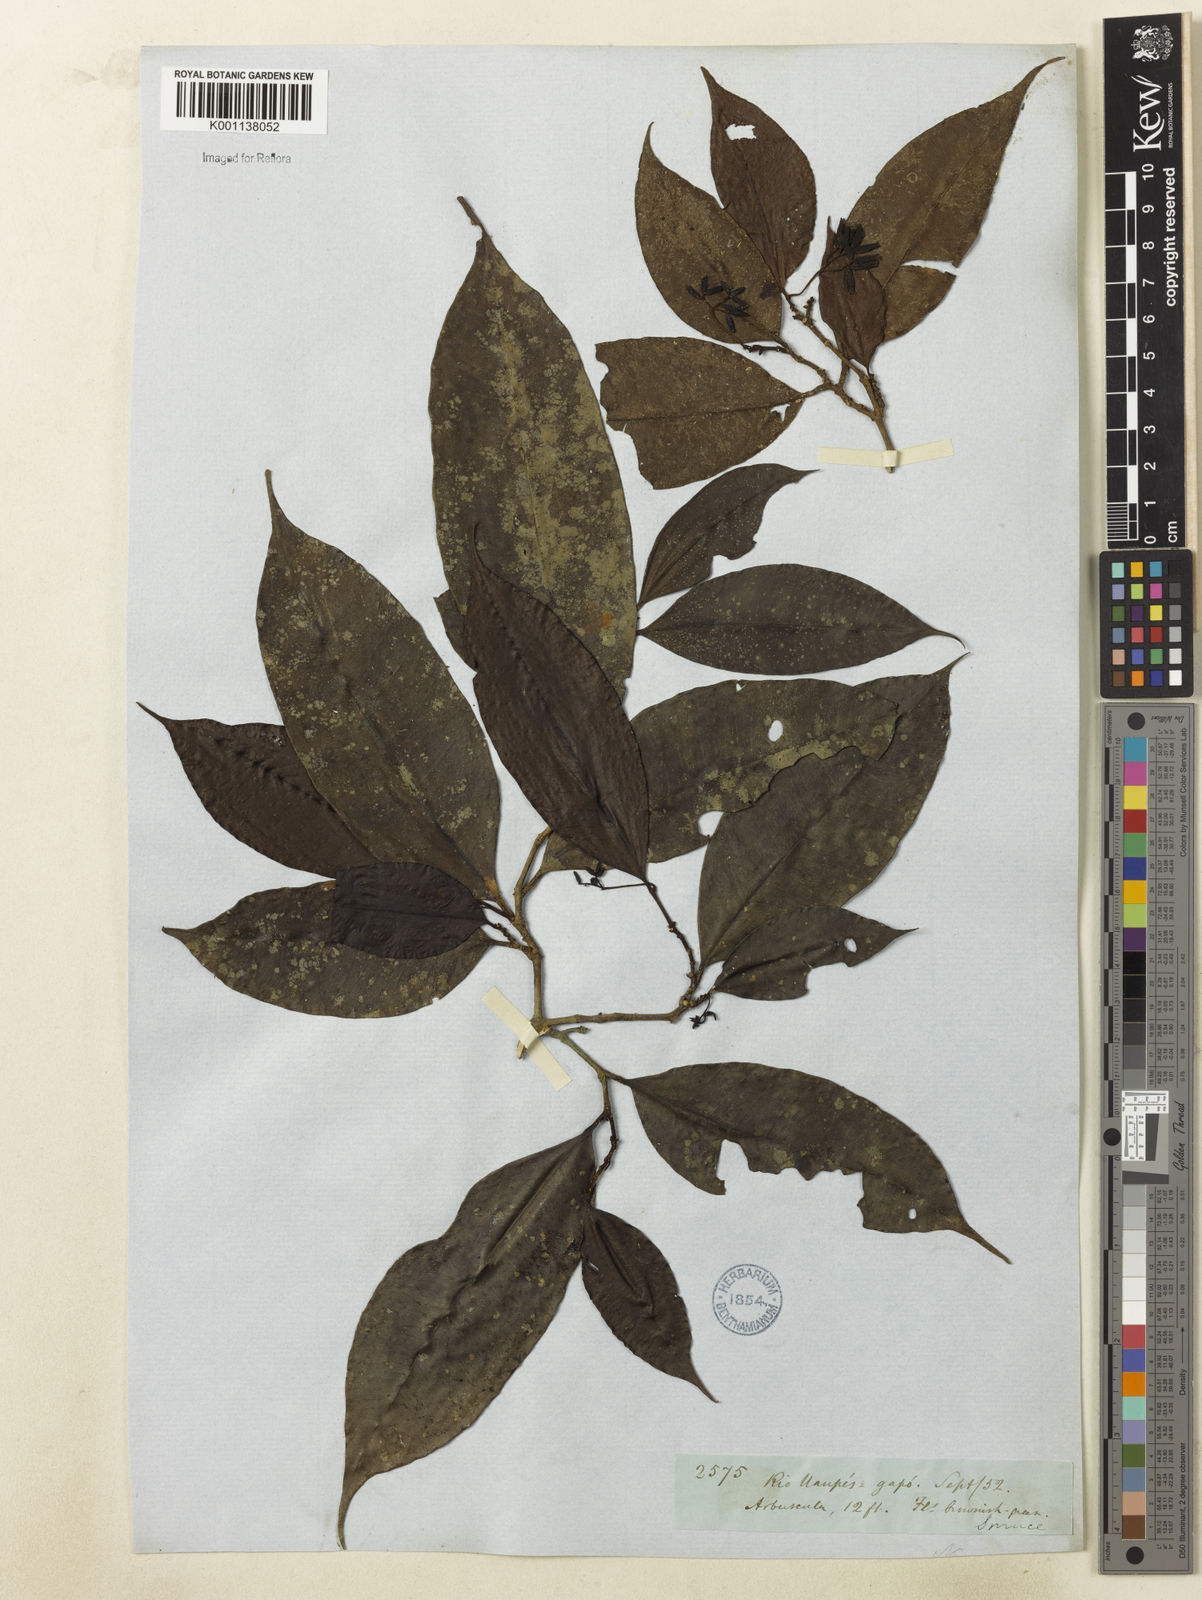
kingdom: Plantae
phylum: Tracheophyta
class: Magnoliopsida
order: Caryophyllales
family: Nyctaginaceae
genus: Neea
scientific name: Neea
